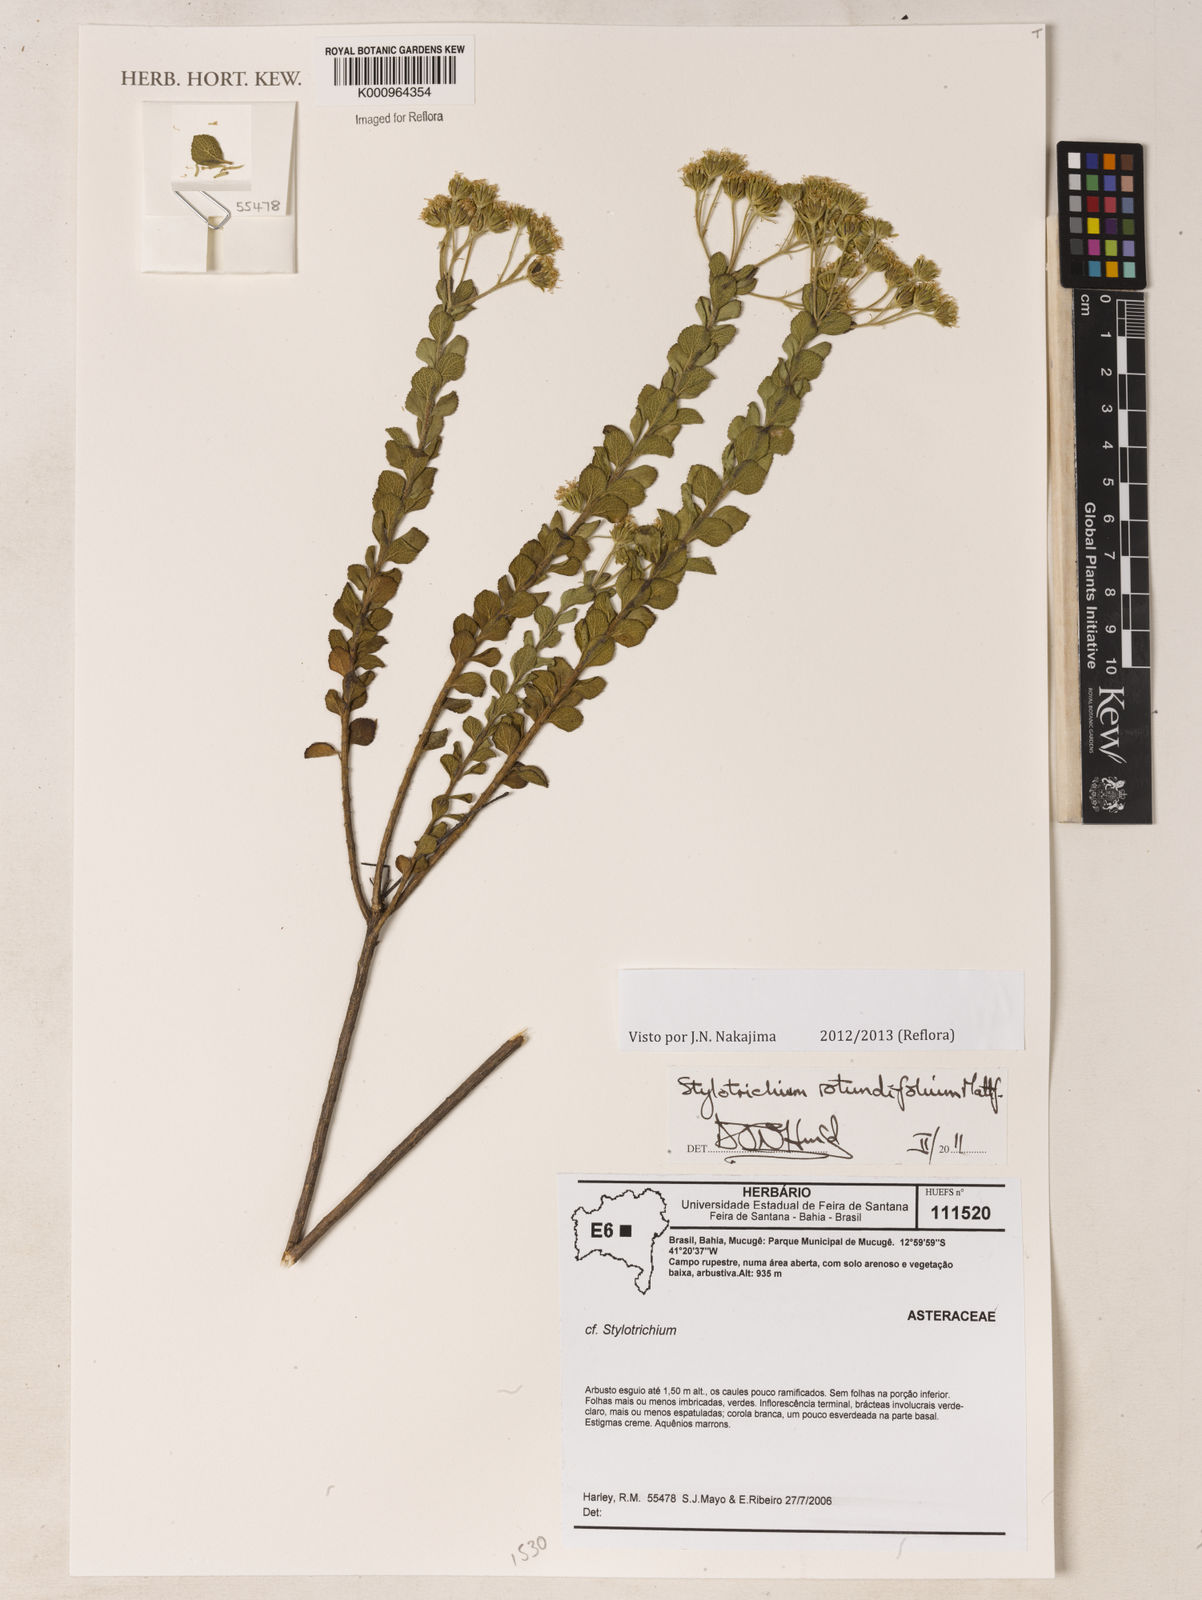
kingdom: Plantae
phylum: Tracheophyta
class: Magnoliopsida
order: Asterales
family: Asteraceae
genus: Stylotrichium
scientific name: Stylotrichium
